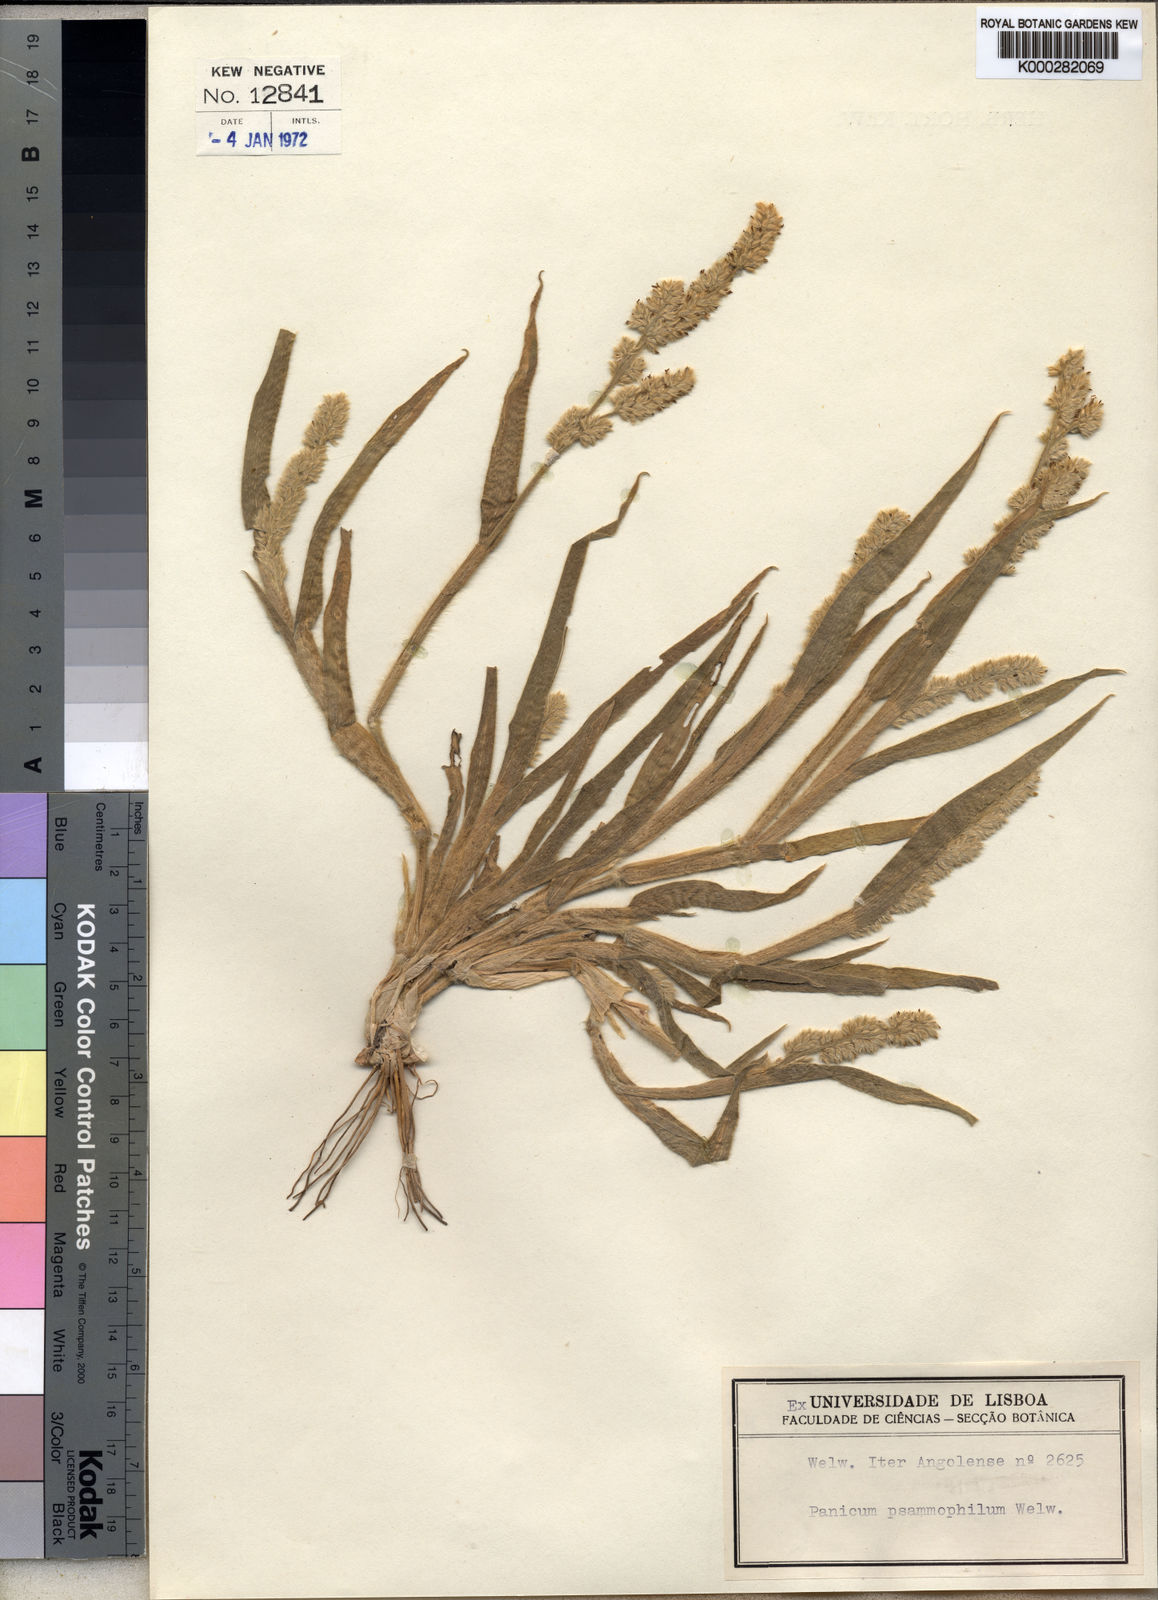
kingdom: Plantae
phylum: Tracheophyta
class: Liliopsida
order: Poales
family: Poaceae
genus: Urochloa
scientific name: Urochloa Brachiaria psammophila
